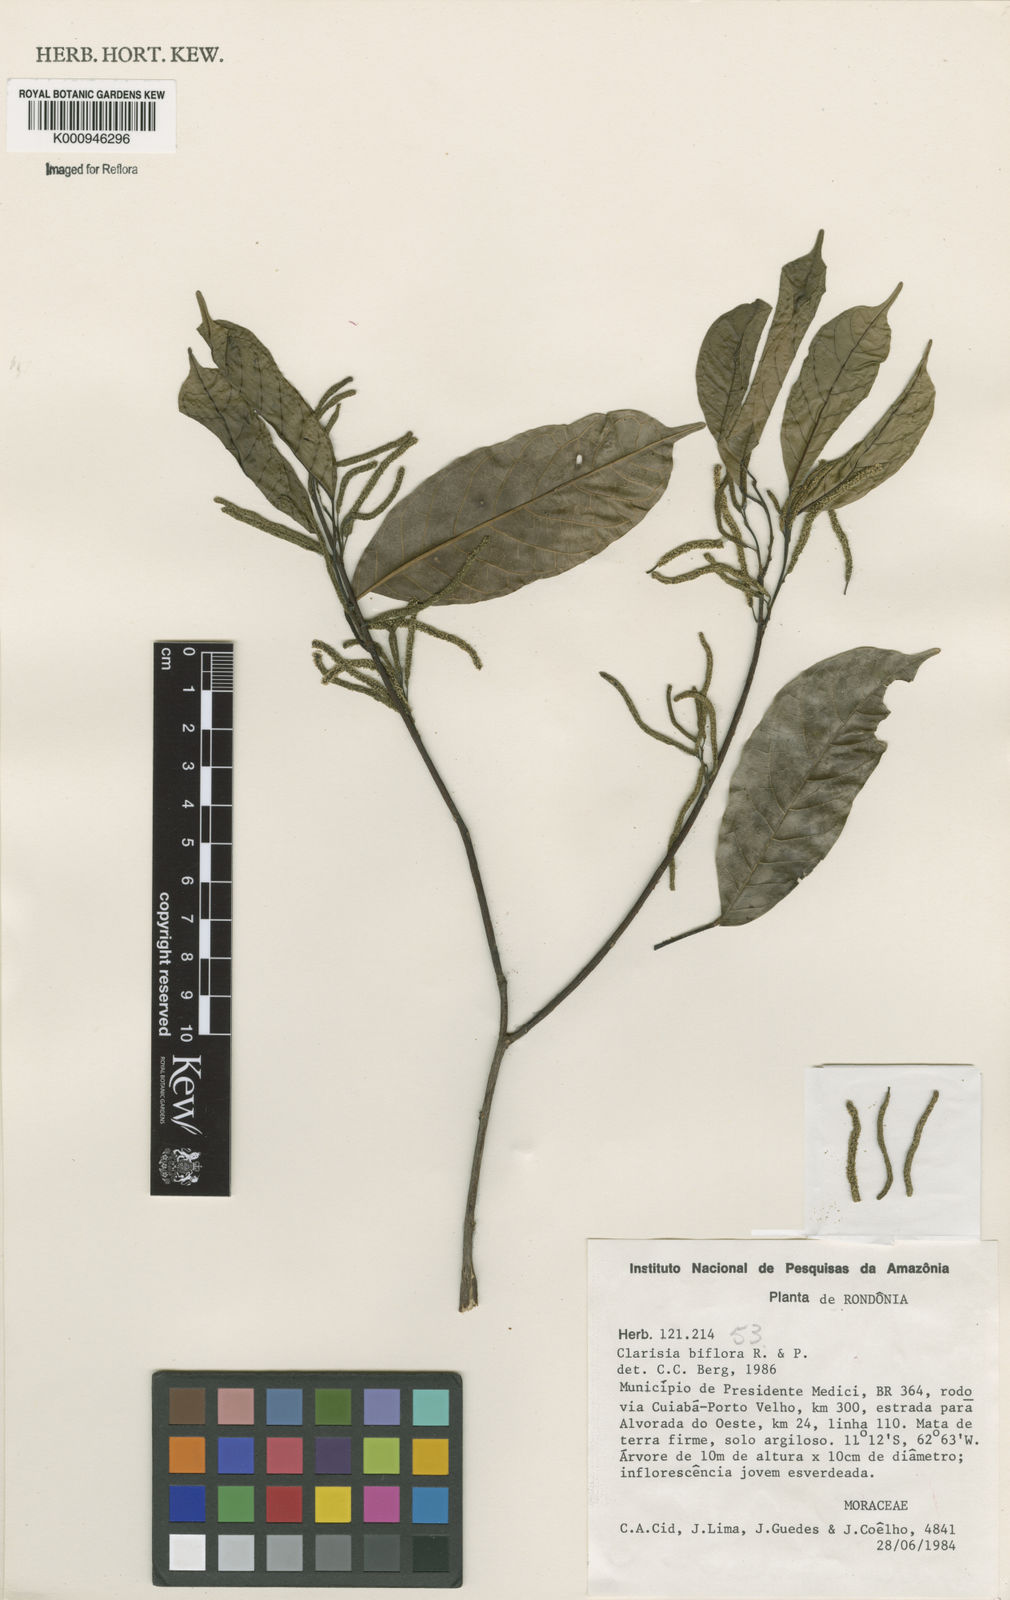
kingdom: Plantae
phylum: Tracheophyta
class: Magnoliopsida
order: Rosales
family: Moraceae
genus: Clarisia
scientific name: Clarisia biflora
